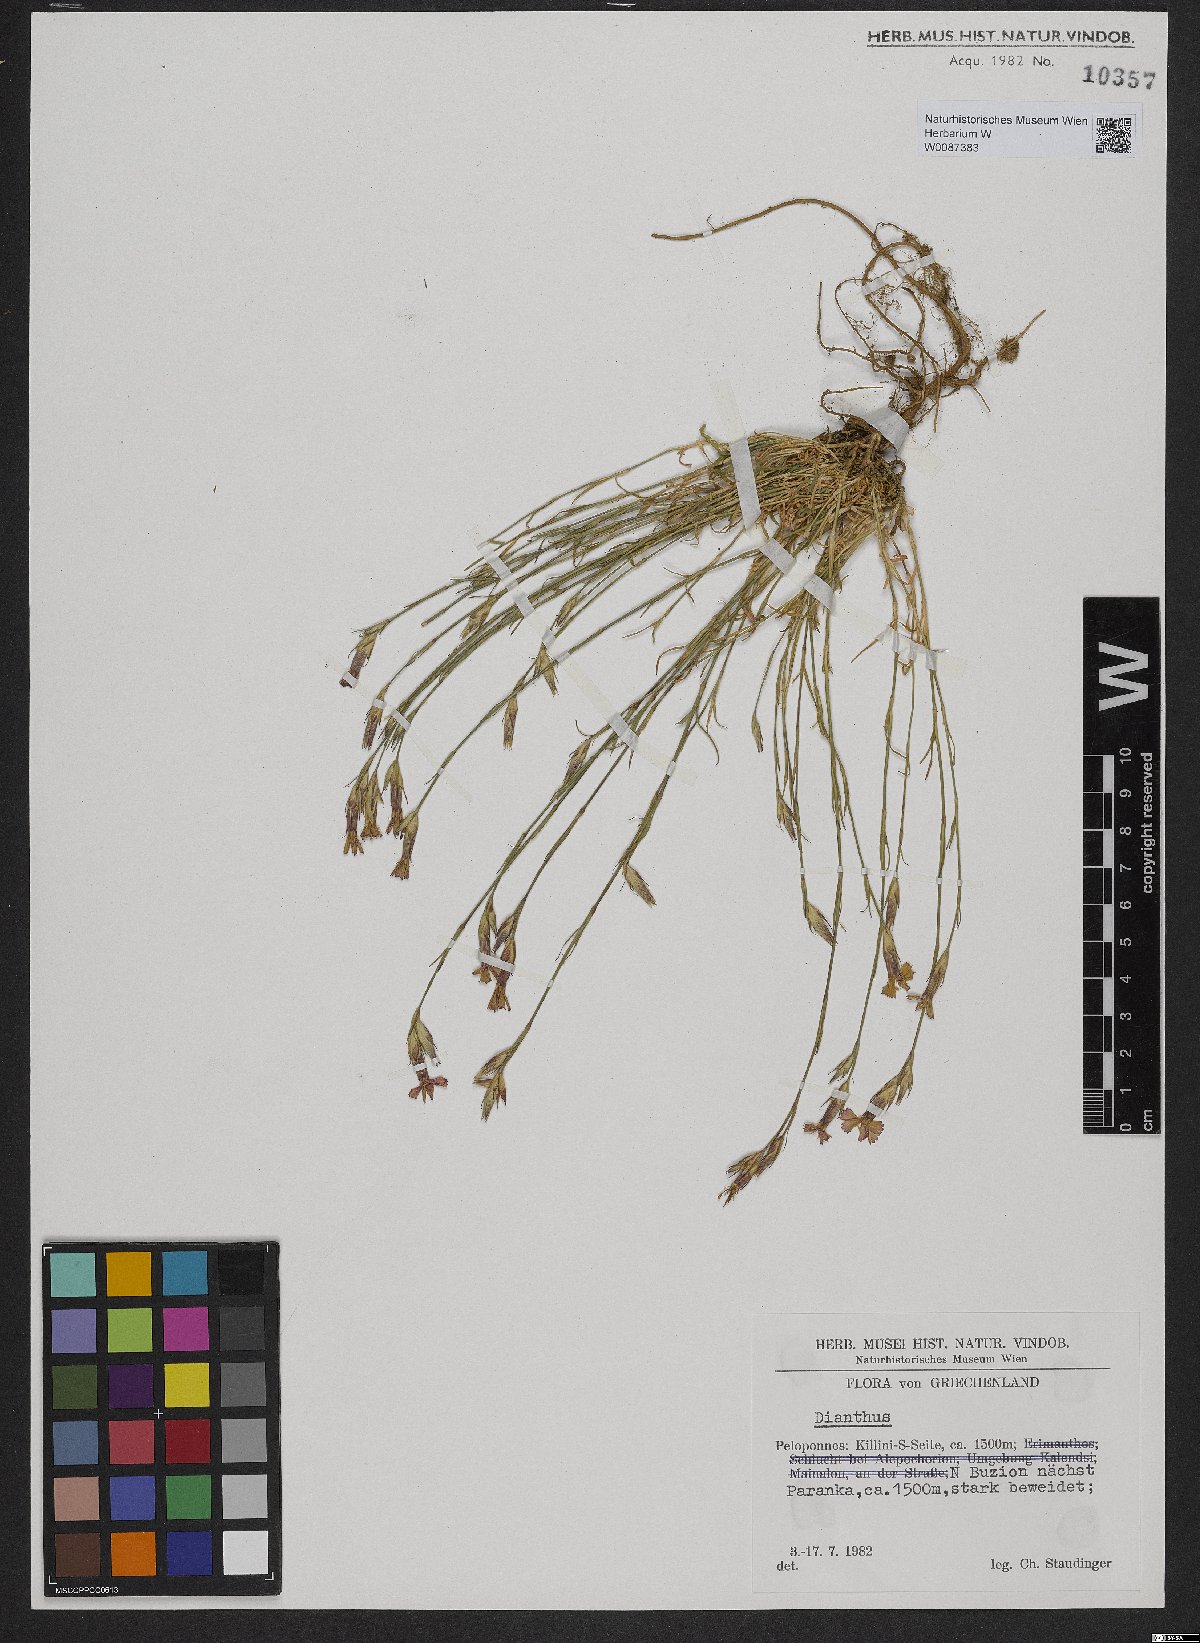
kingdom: Plantae
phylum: Tracheophyta
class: Magnoliopsida
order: Caryophyllales
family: Caryophyllaceae
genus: Dianthus
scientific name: Dianthus
